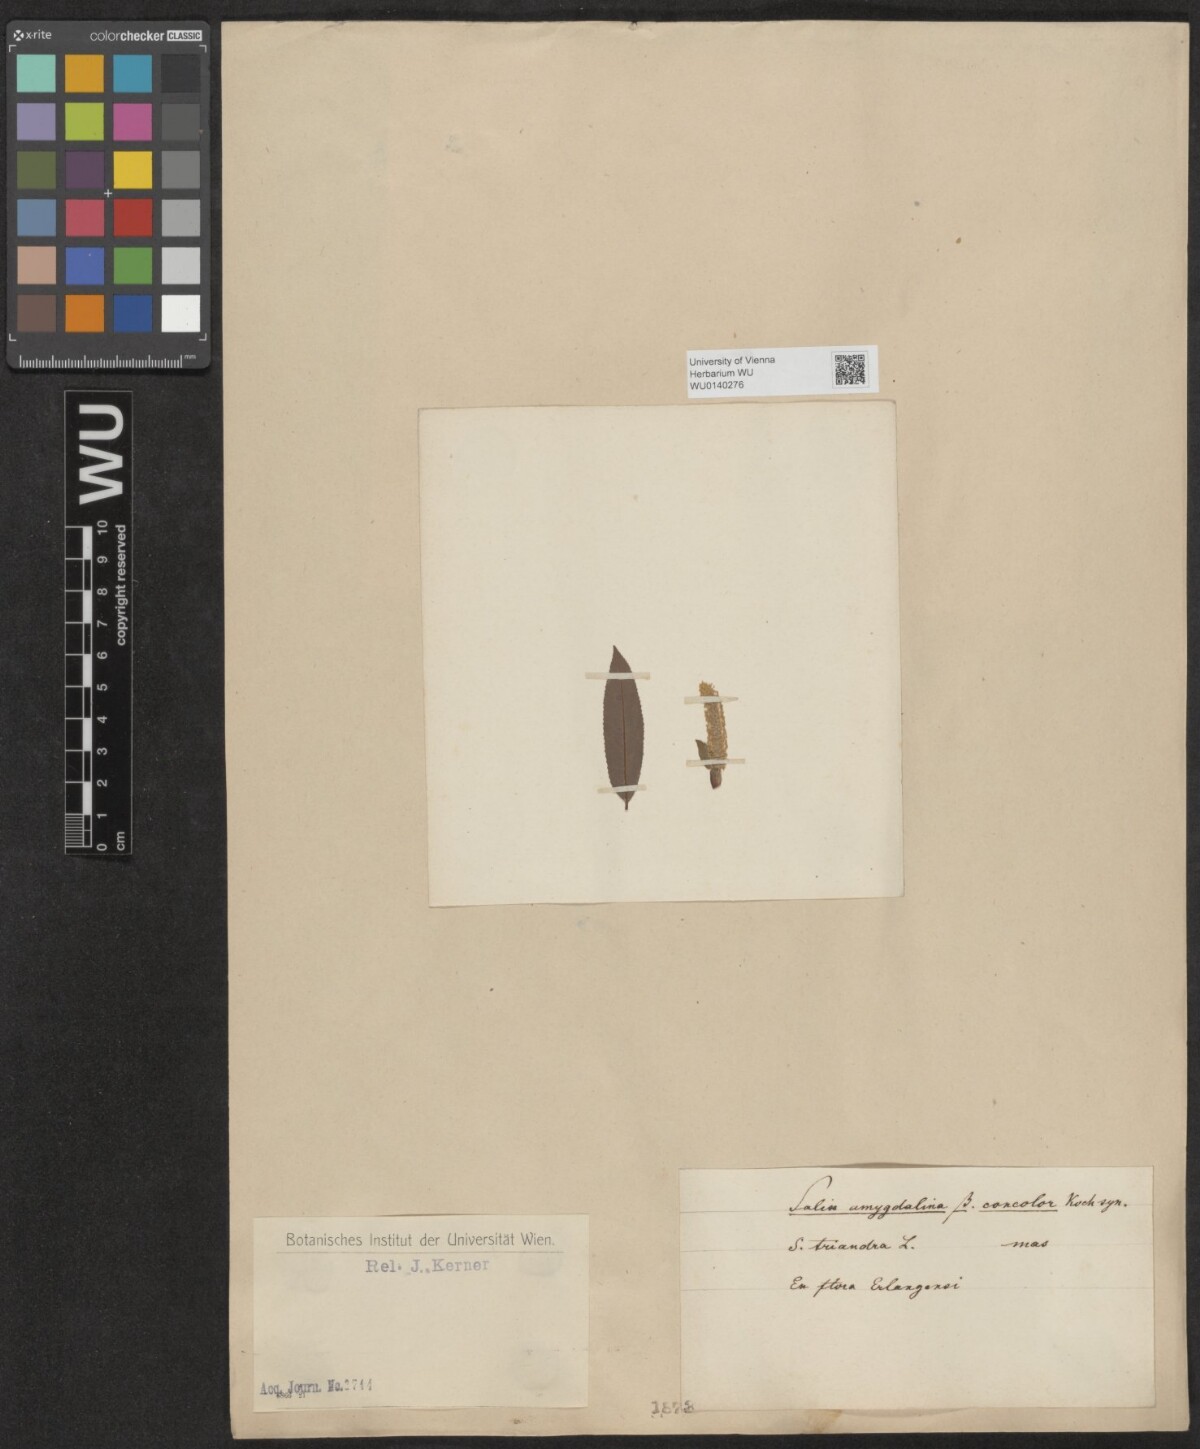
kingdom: Plantae
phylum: Tracheophyta
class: Magnoliopsida
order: Malpighiales
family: Salicaceae
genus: Salix
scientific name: Salix triandra
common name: Almond willow
